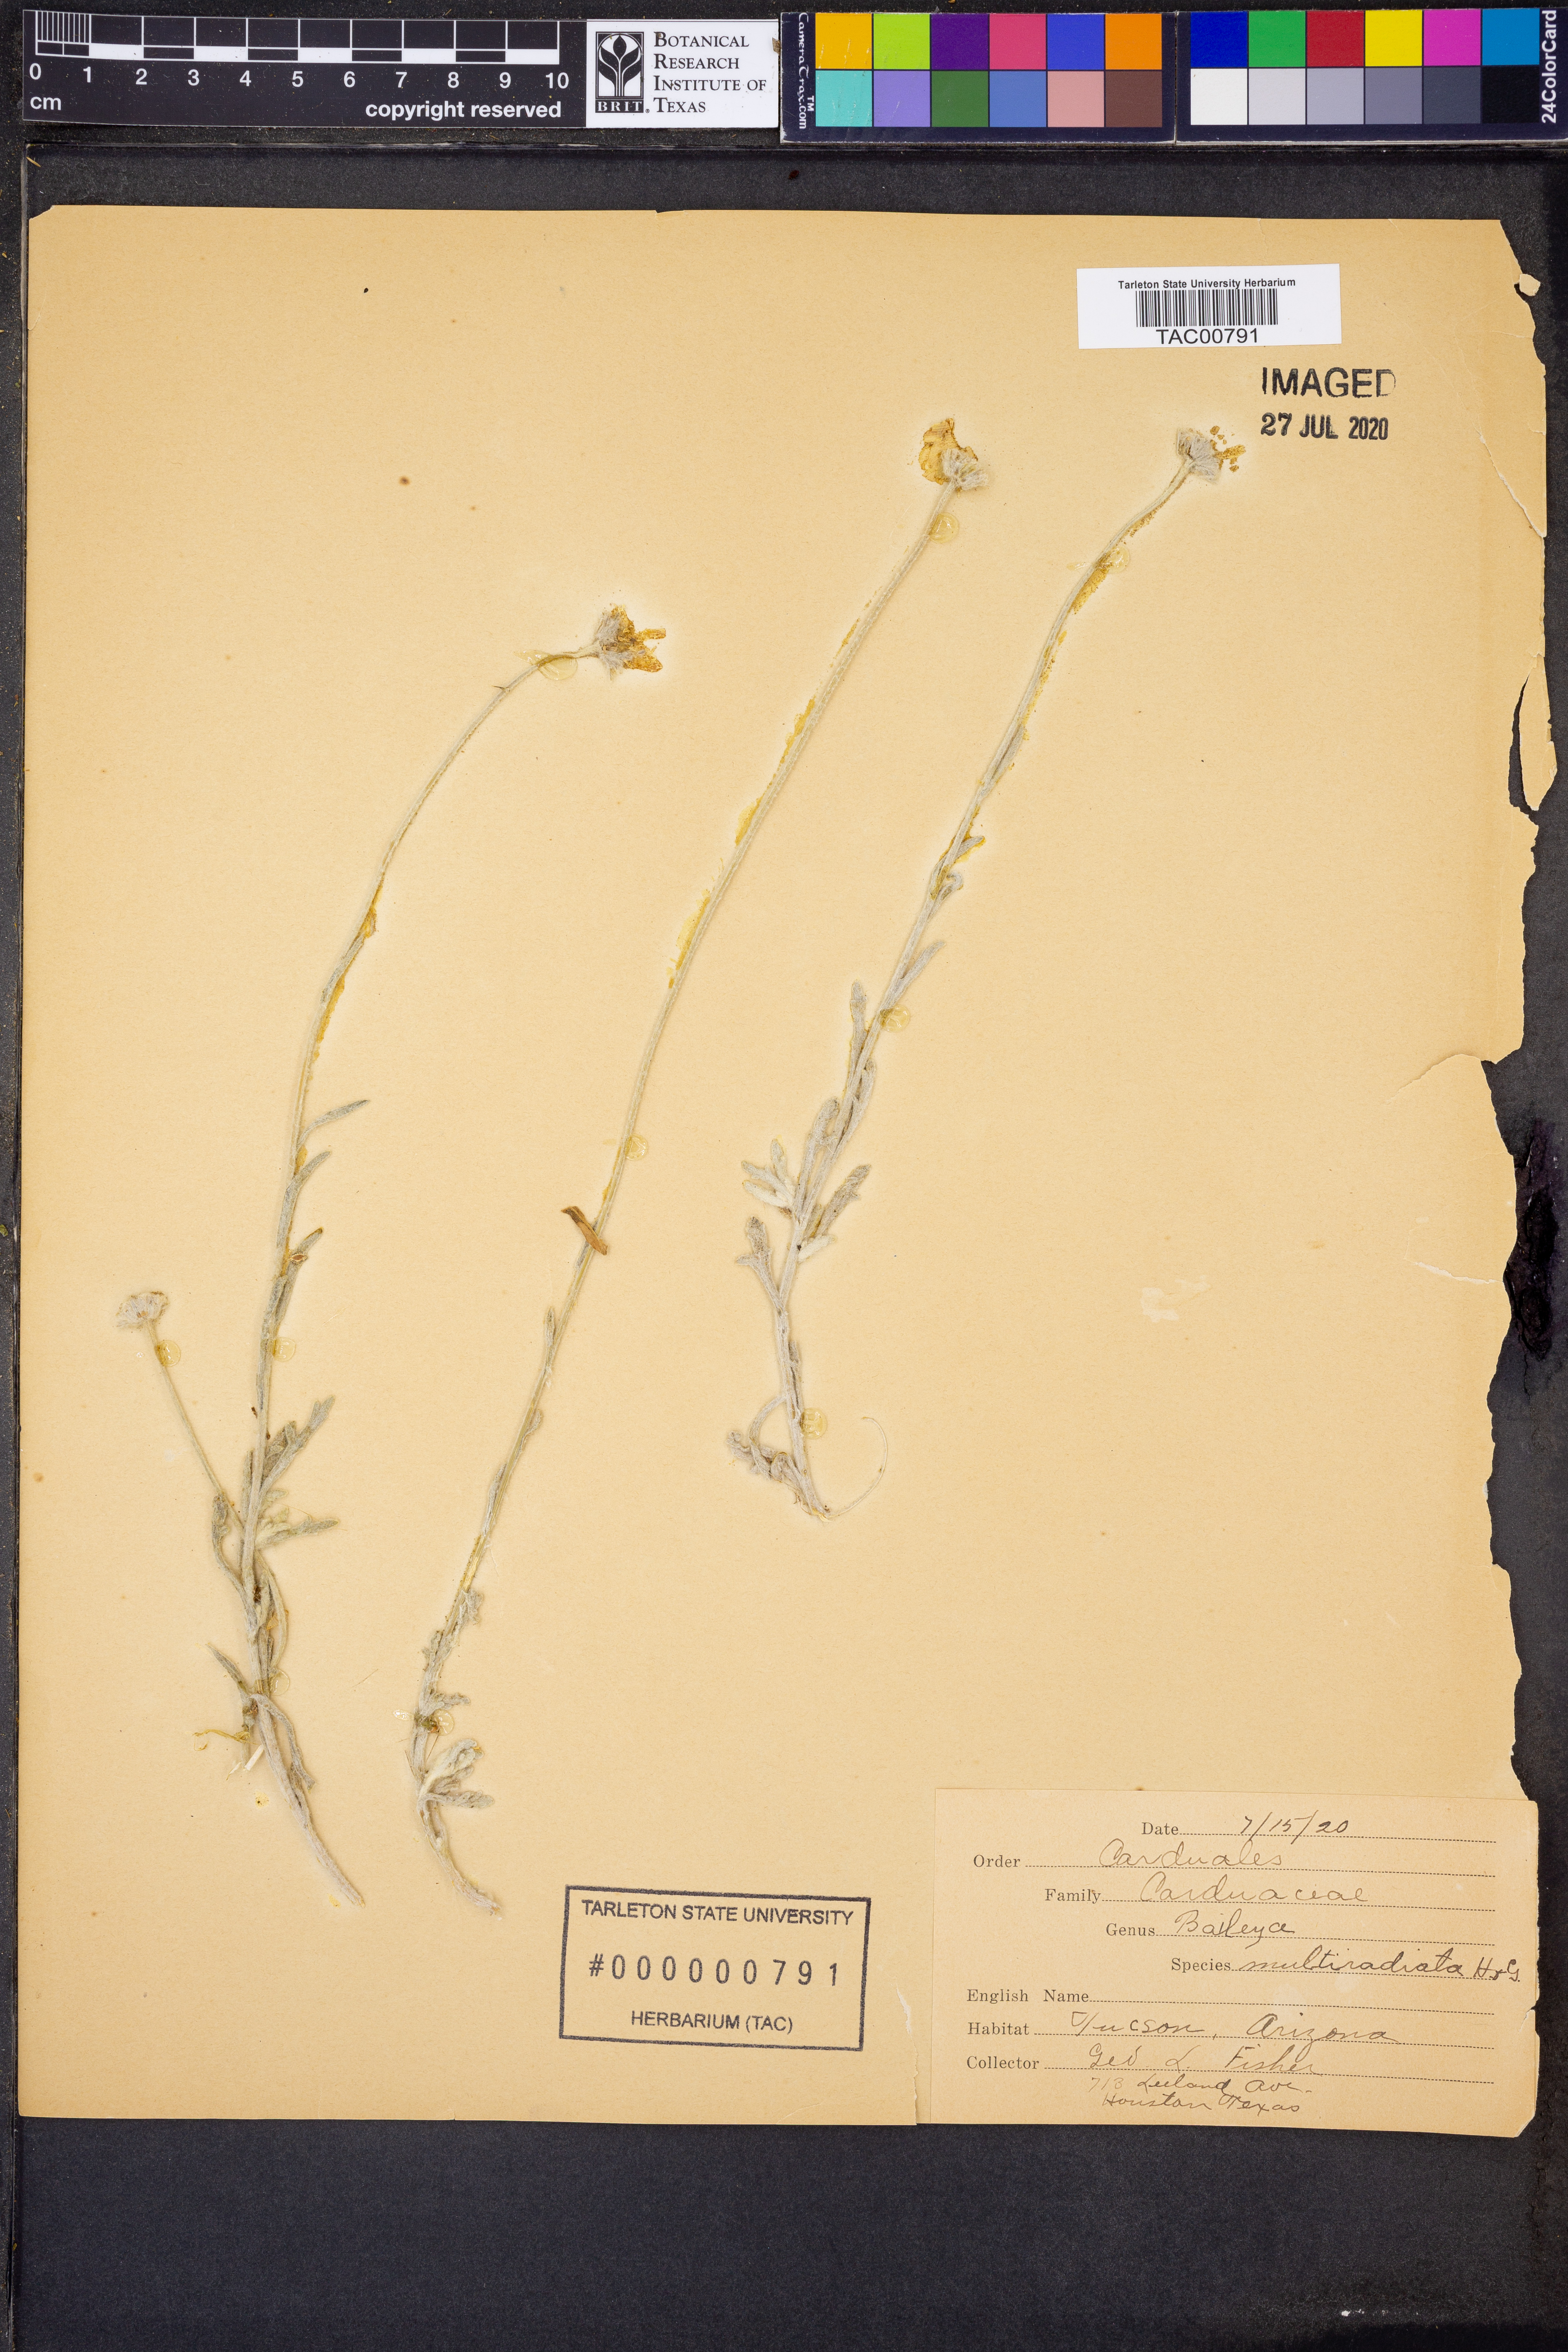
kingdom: Plantae
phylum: Tracheophyta
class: Magnoliopsida
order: Asterales
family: Asteraceae
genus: Baileya
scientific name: Baileya multiradiata
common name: Desert-marigold
